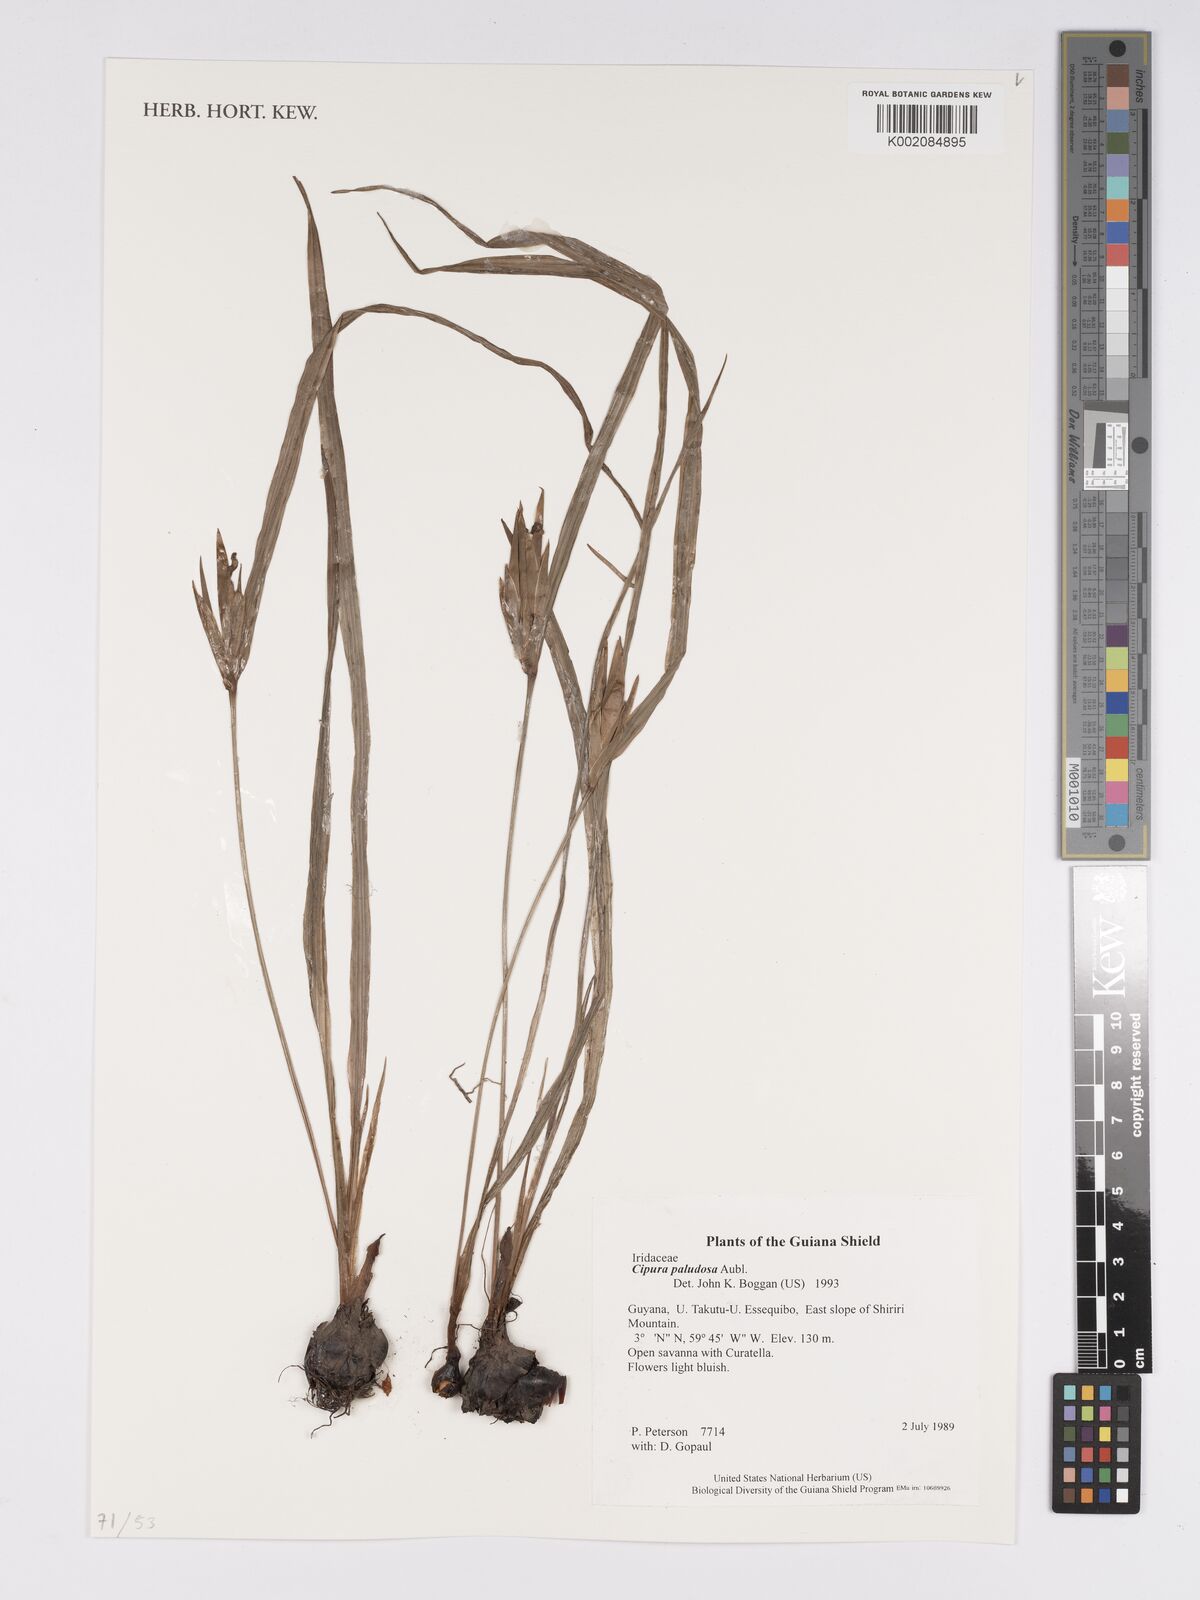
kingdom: Plantae
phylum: Tracheophyta
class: Liliopsida
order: Asparagales
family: Iridaceae
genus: Cipura
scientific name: Cipura paludosa
